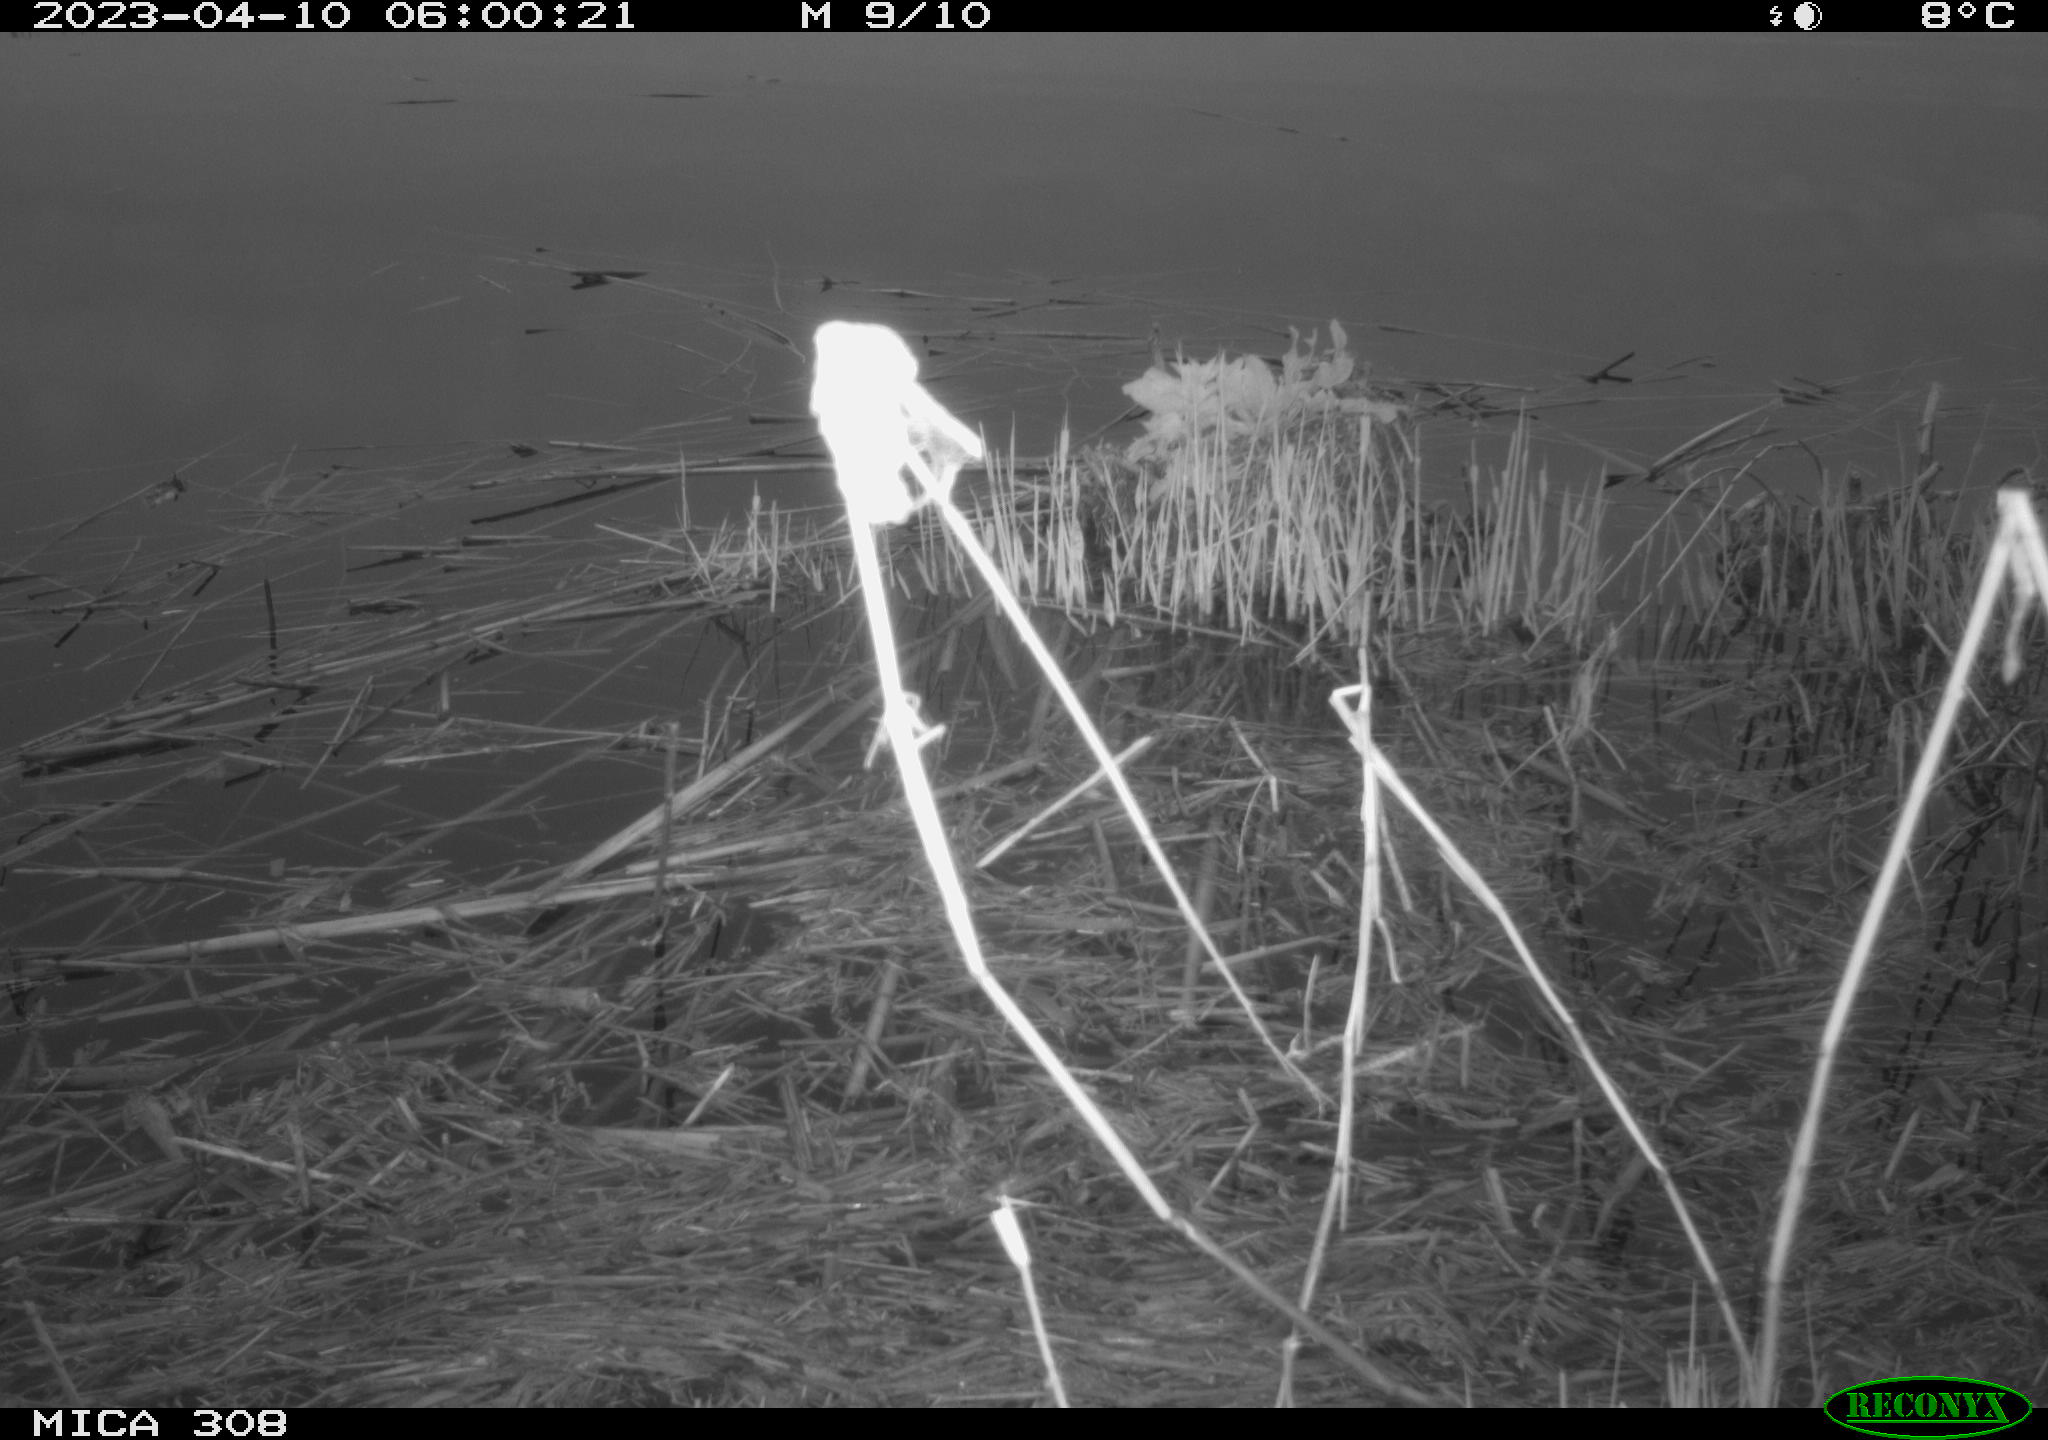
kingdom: Animalia
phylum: Chordata
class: Aves
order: Gruiformes
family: Rallidae
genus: Fulica
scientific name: Fulica atra
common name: Eurasian coot
